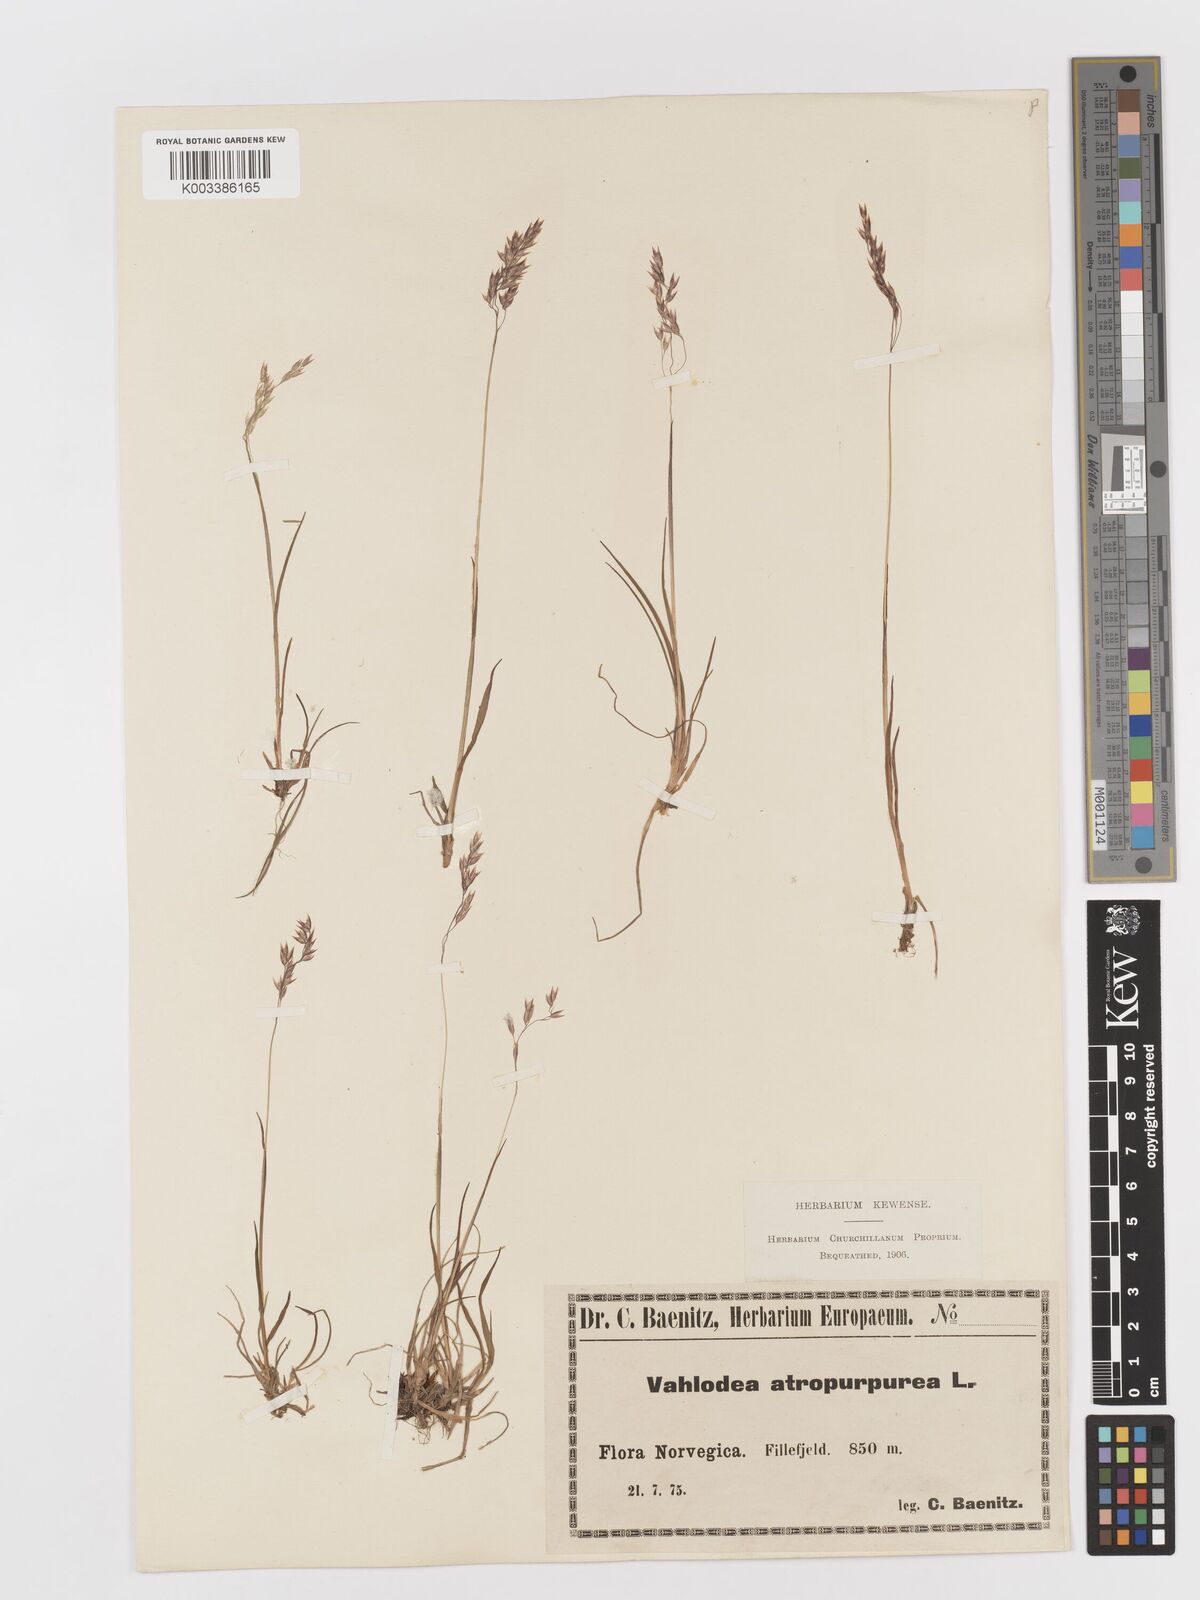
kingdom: Plantae
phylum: Tracheophyta
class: Liliopsida
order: Poales
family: Poaceae
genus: Vahlodea
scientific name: Vahlodea atropurpurea
